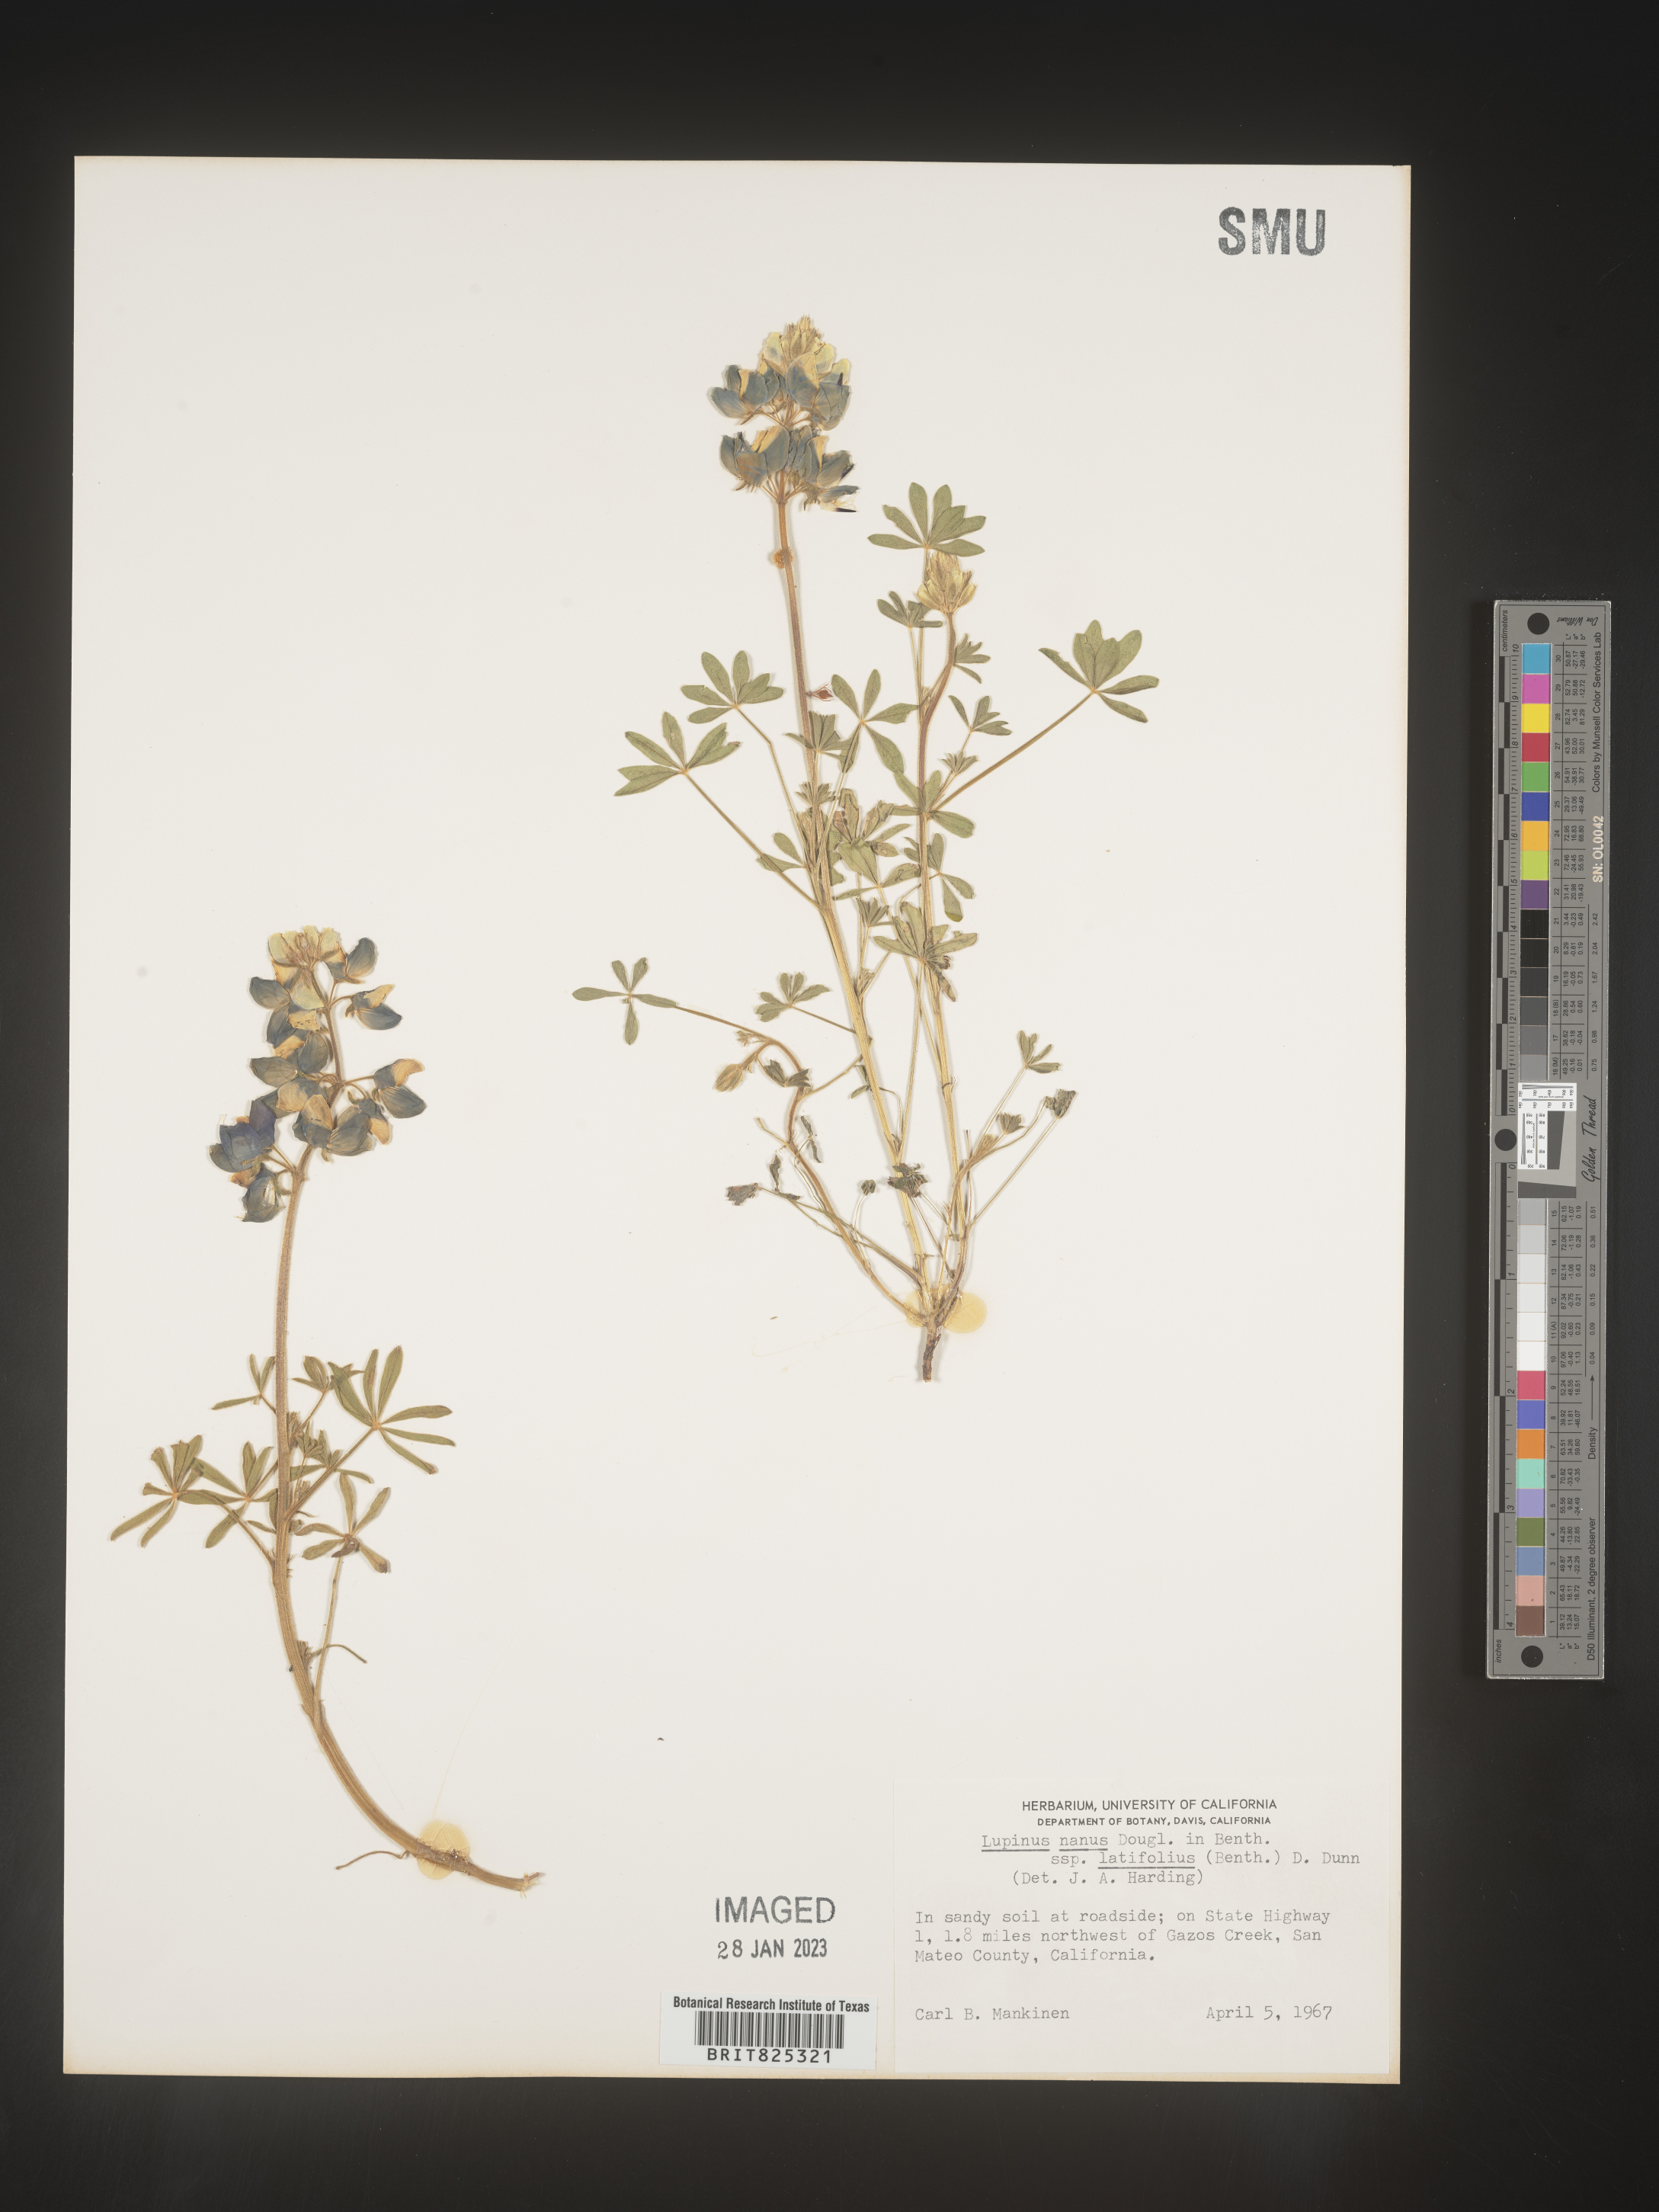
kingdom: Plantae
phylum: Tracheophyta
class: Magnoliopsida
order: Fabales
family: Fabaceae
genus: Lupinus
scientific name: Lupinus nanus
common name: Orean blue lupin
